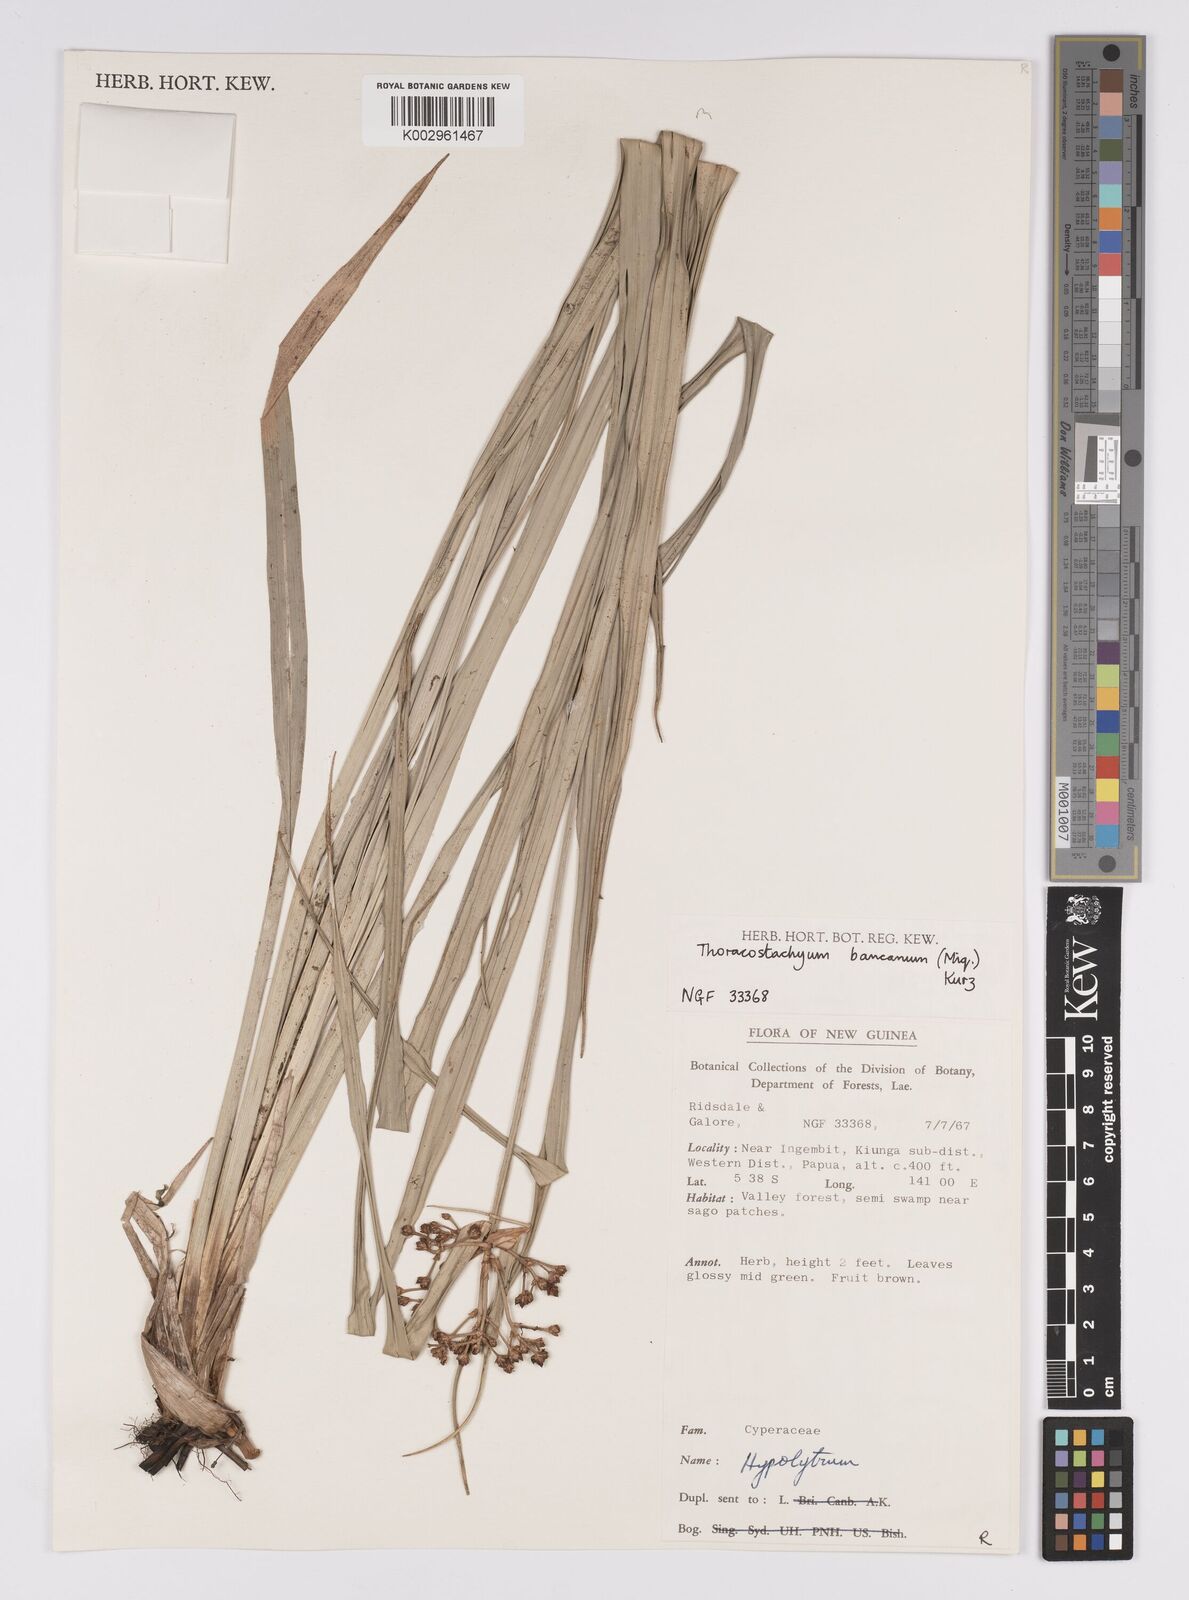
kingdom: Plantae
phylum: Tracheophyta
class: Liliopsida
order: Poales
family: Cyperaceae
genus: Mapania
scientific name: Mapania
